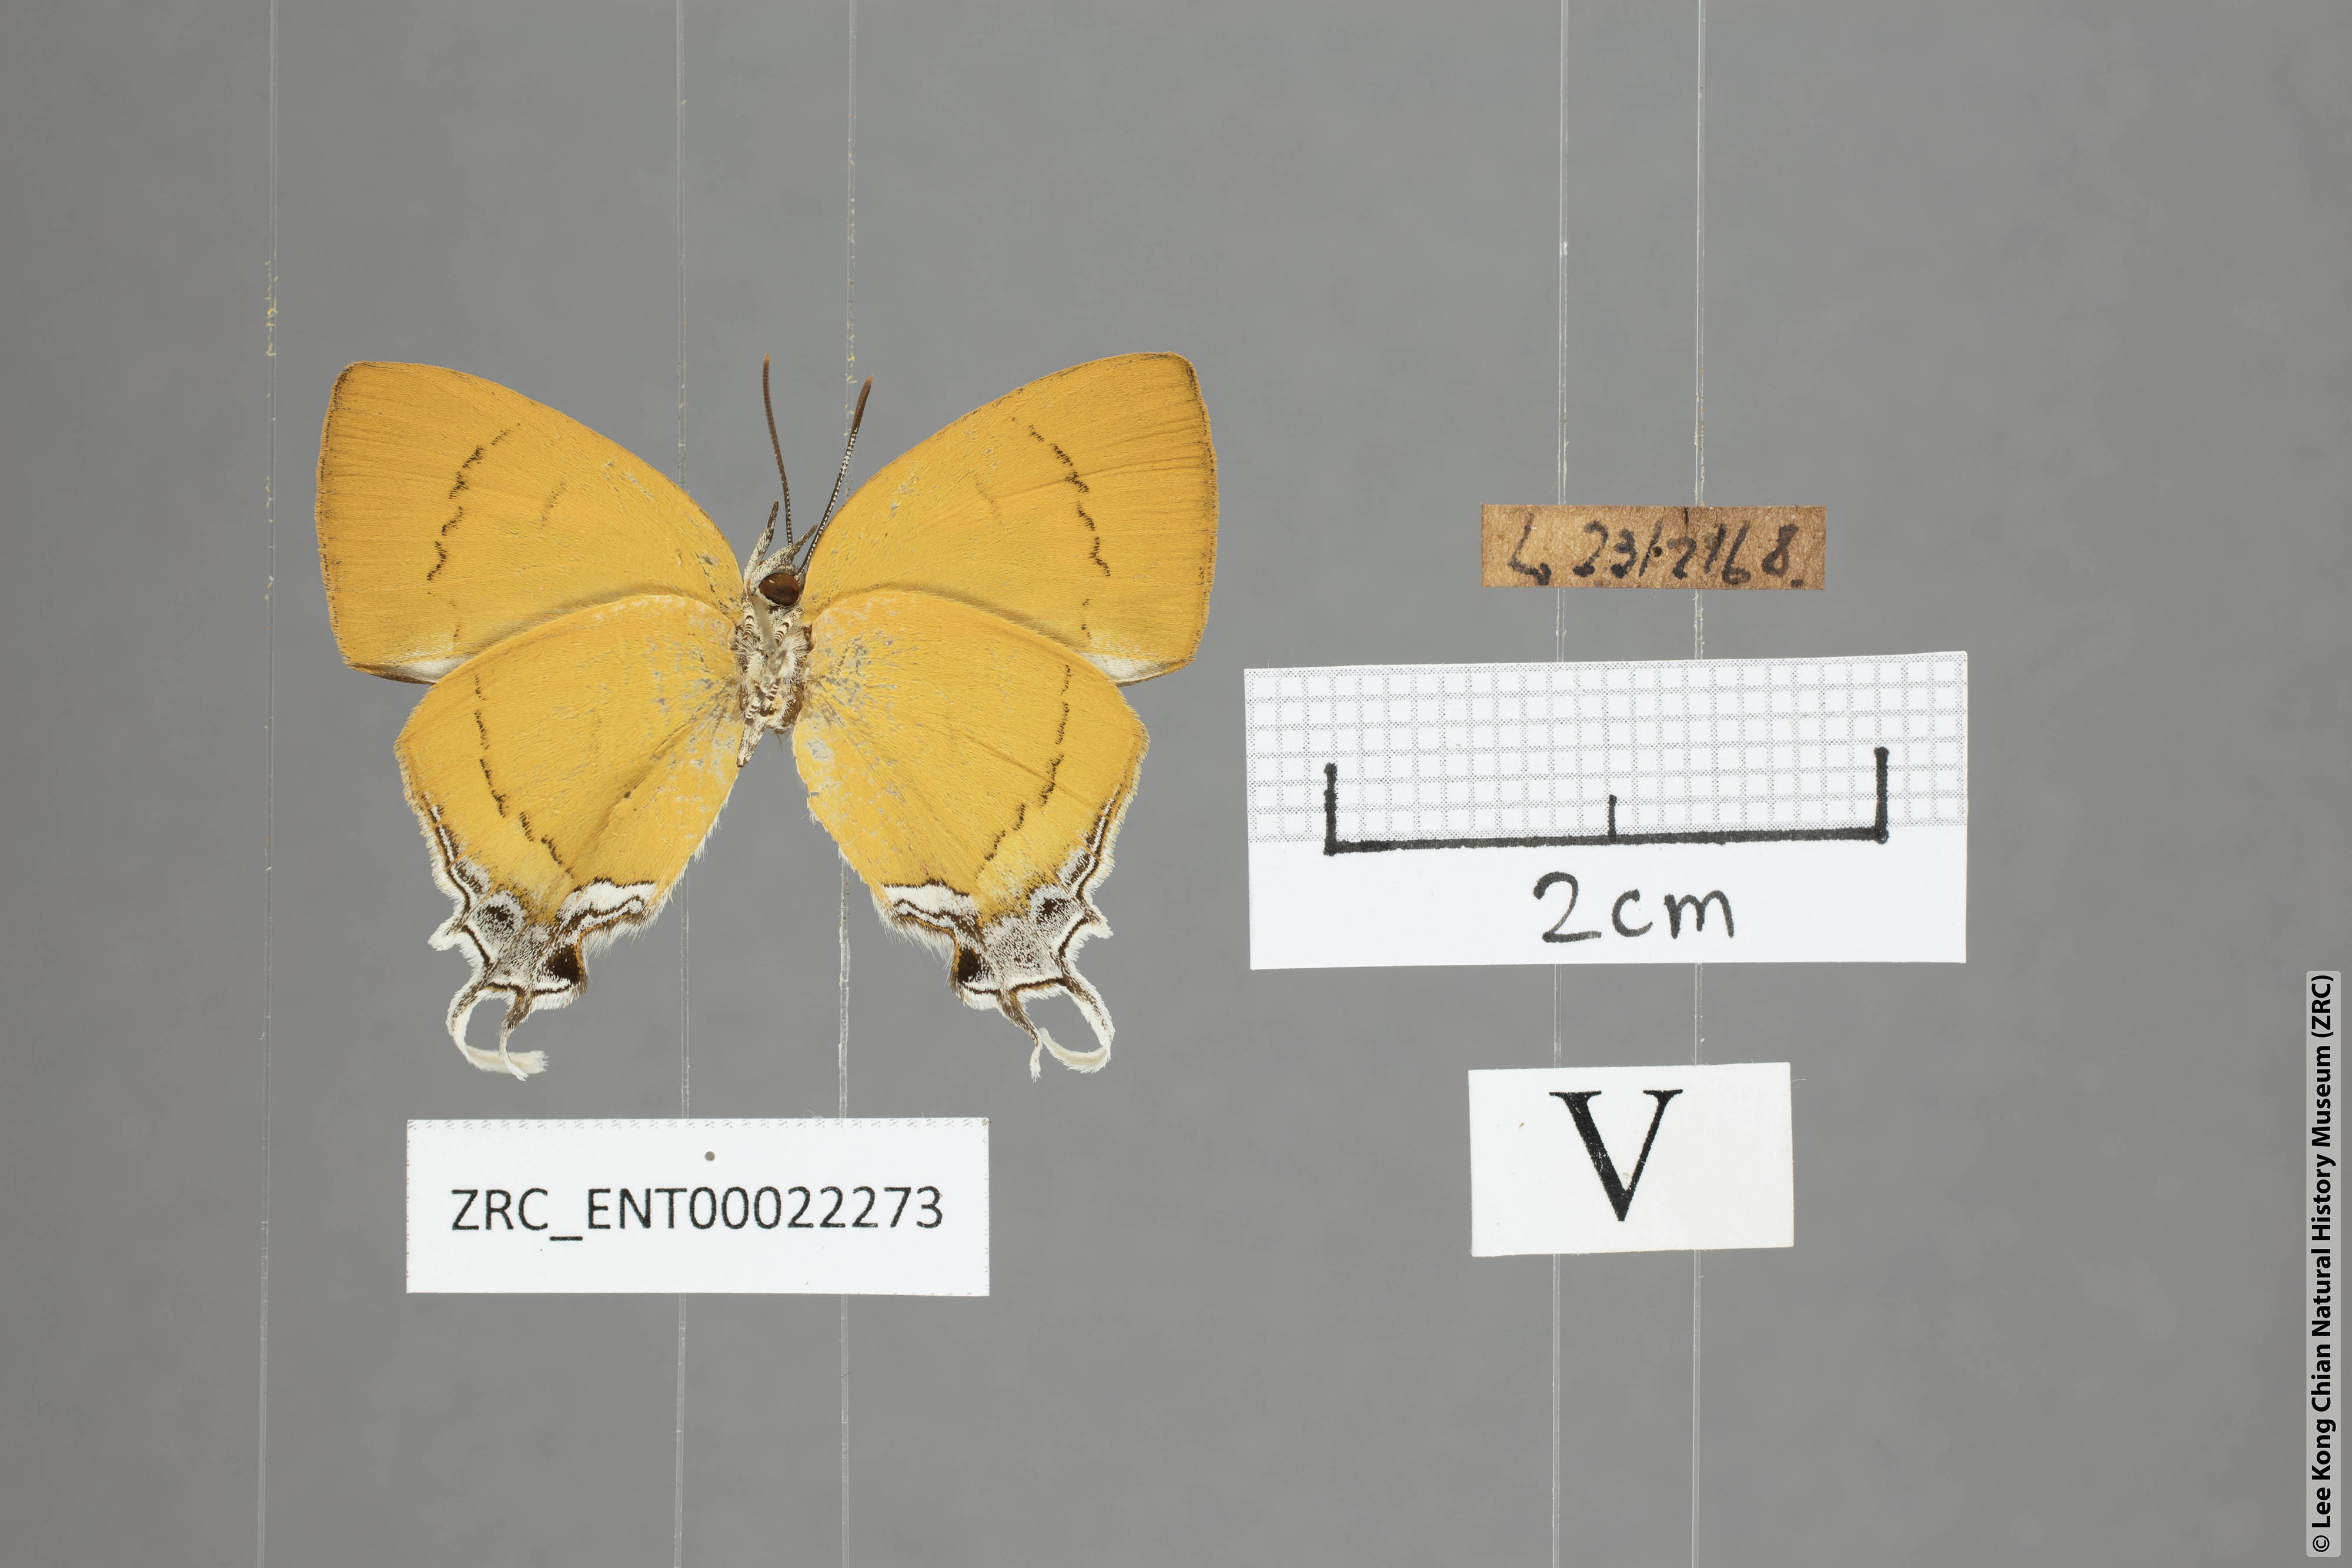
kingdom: Animalia
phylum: Arthropoda
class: Insecta
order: Lepidoptera
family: Lycaenidae
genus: Thamala
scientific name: Thamala marciana
